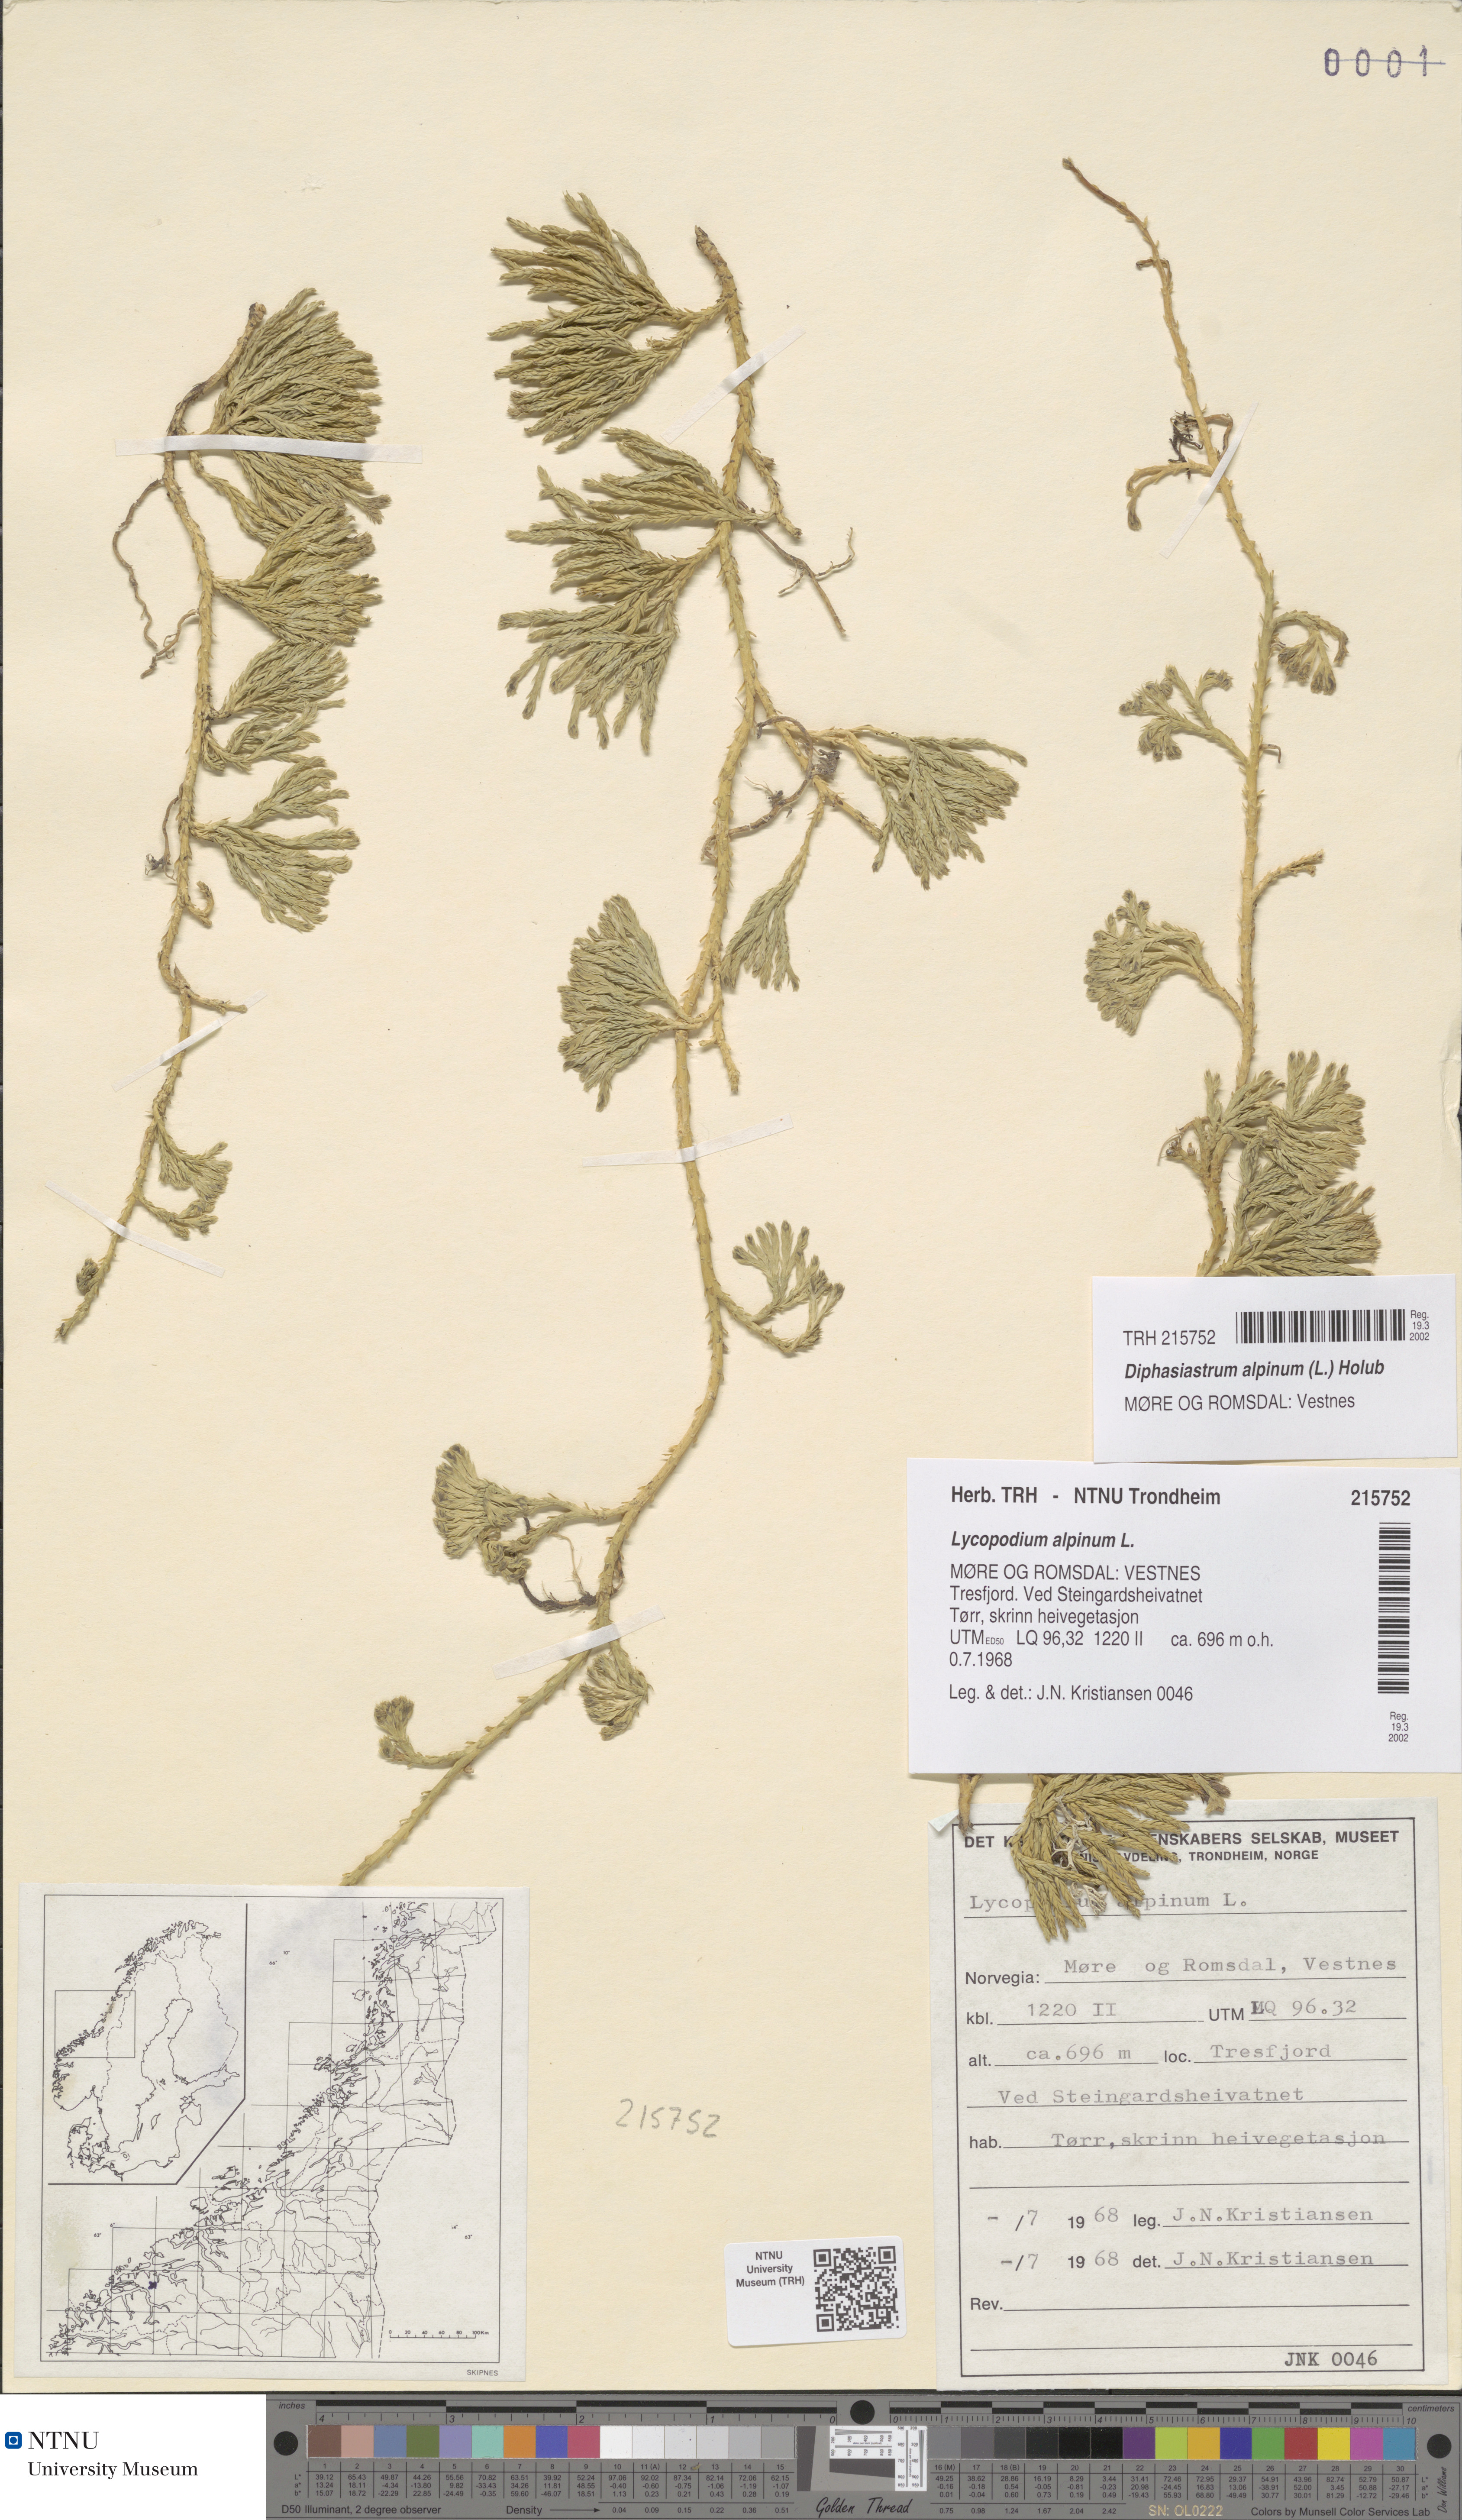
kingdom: Plantae
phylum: Tracheophyta
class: Lycopodiopsida
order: Lycopodiales
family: Lycopodiaceae
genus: Diphasiastrum
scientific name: Diphasiastrum alpinum
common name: Alpine clubmoss
